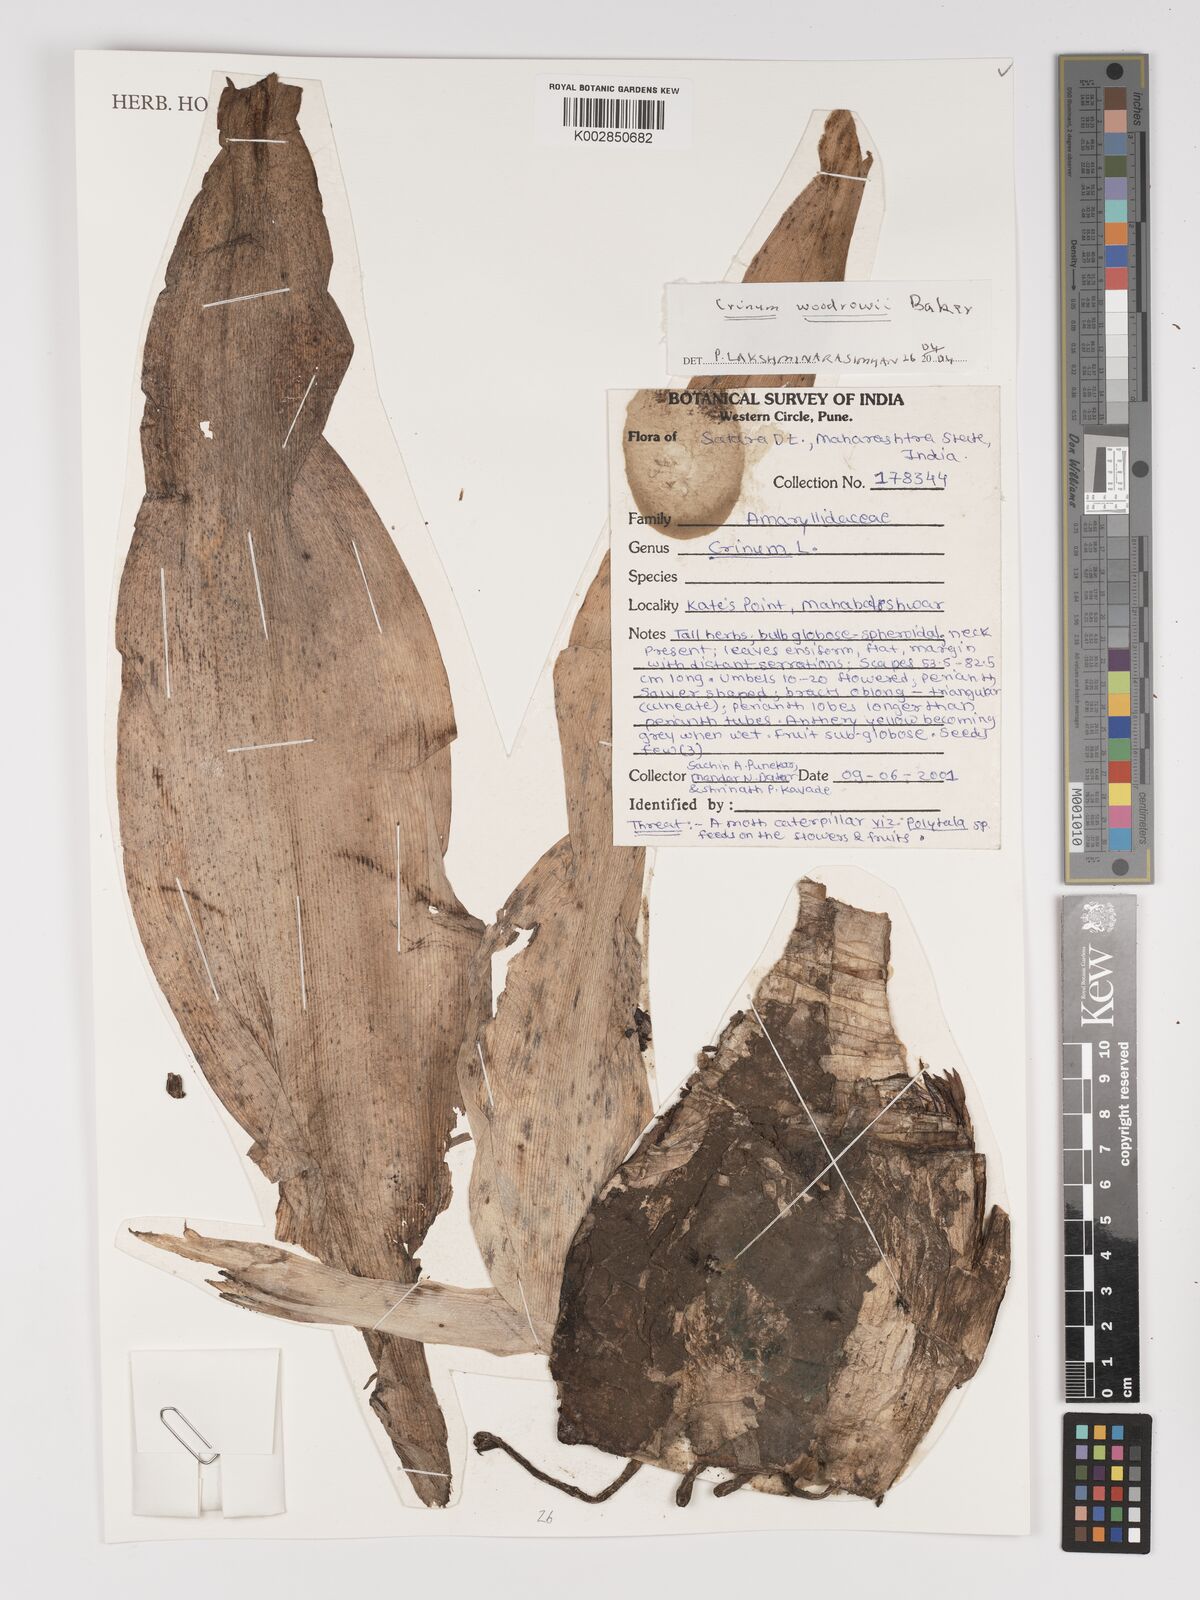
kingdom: Plantae
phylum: Tracheophyta
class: Liliopsida
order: Asparagales
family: Amaryllidaceae
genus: Crinum
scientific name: Crinum woodrowii
